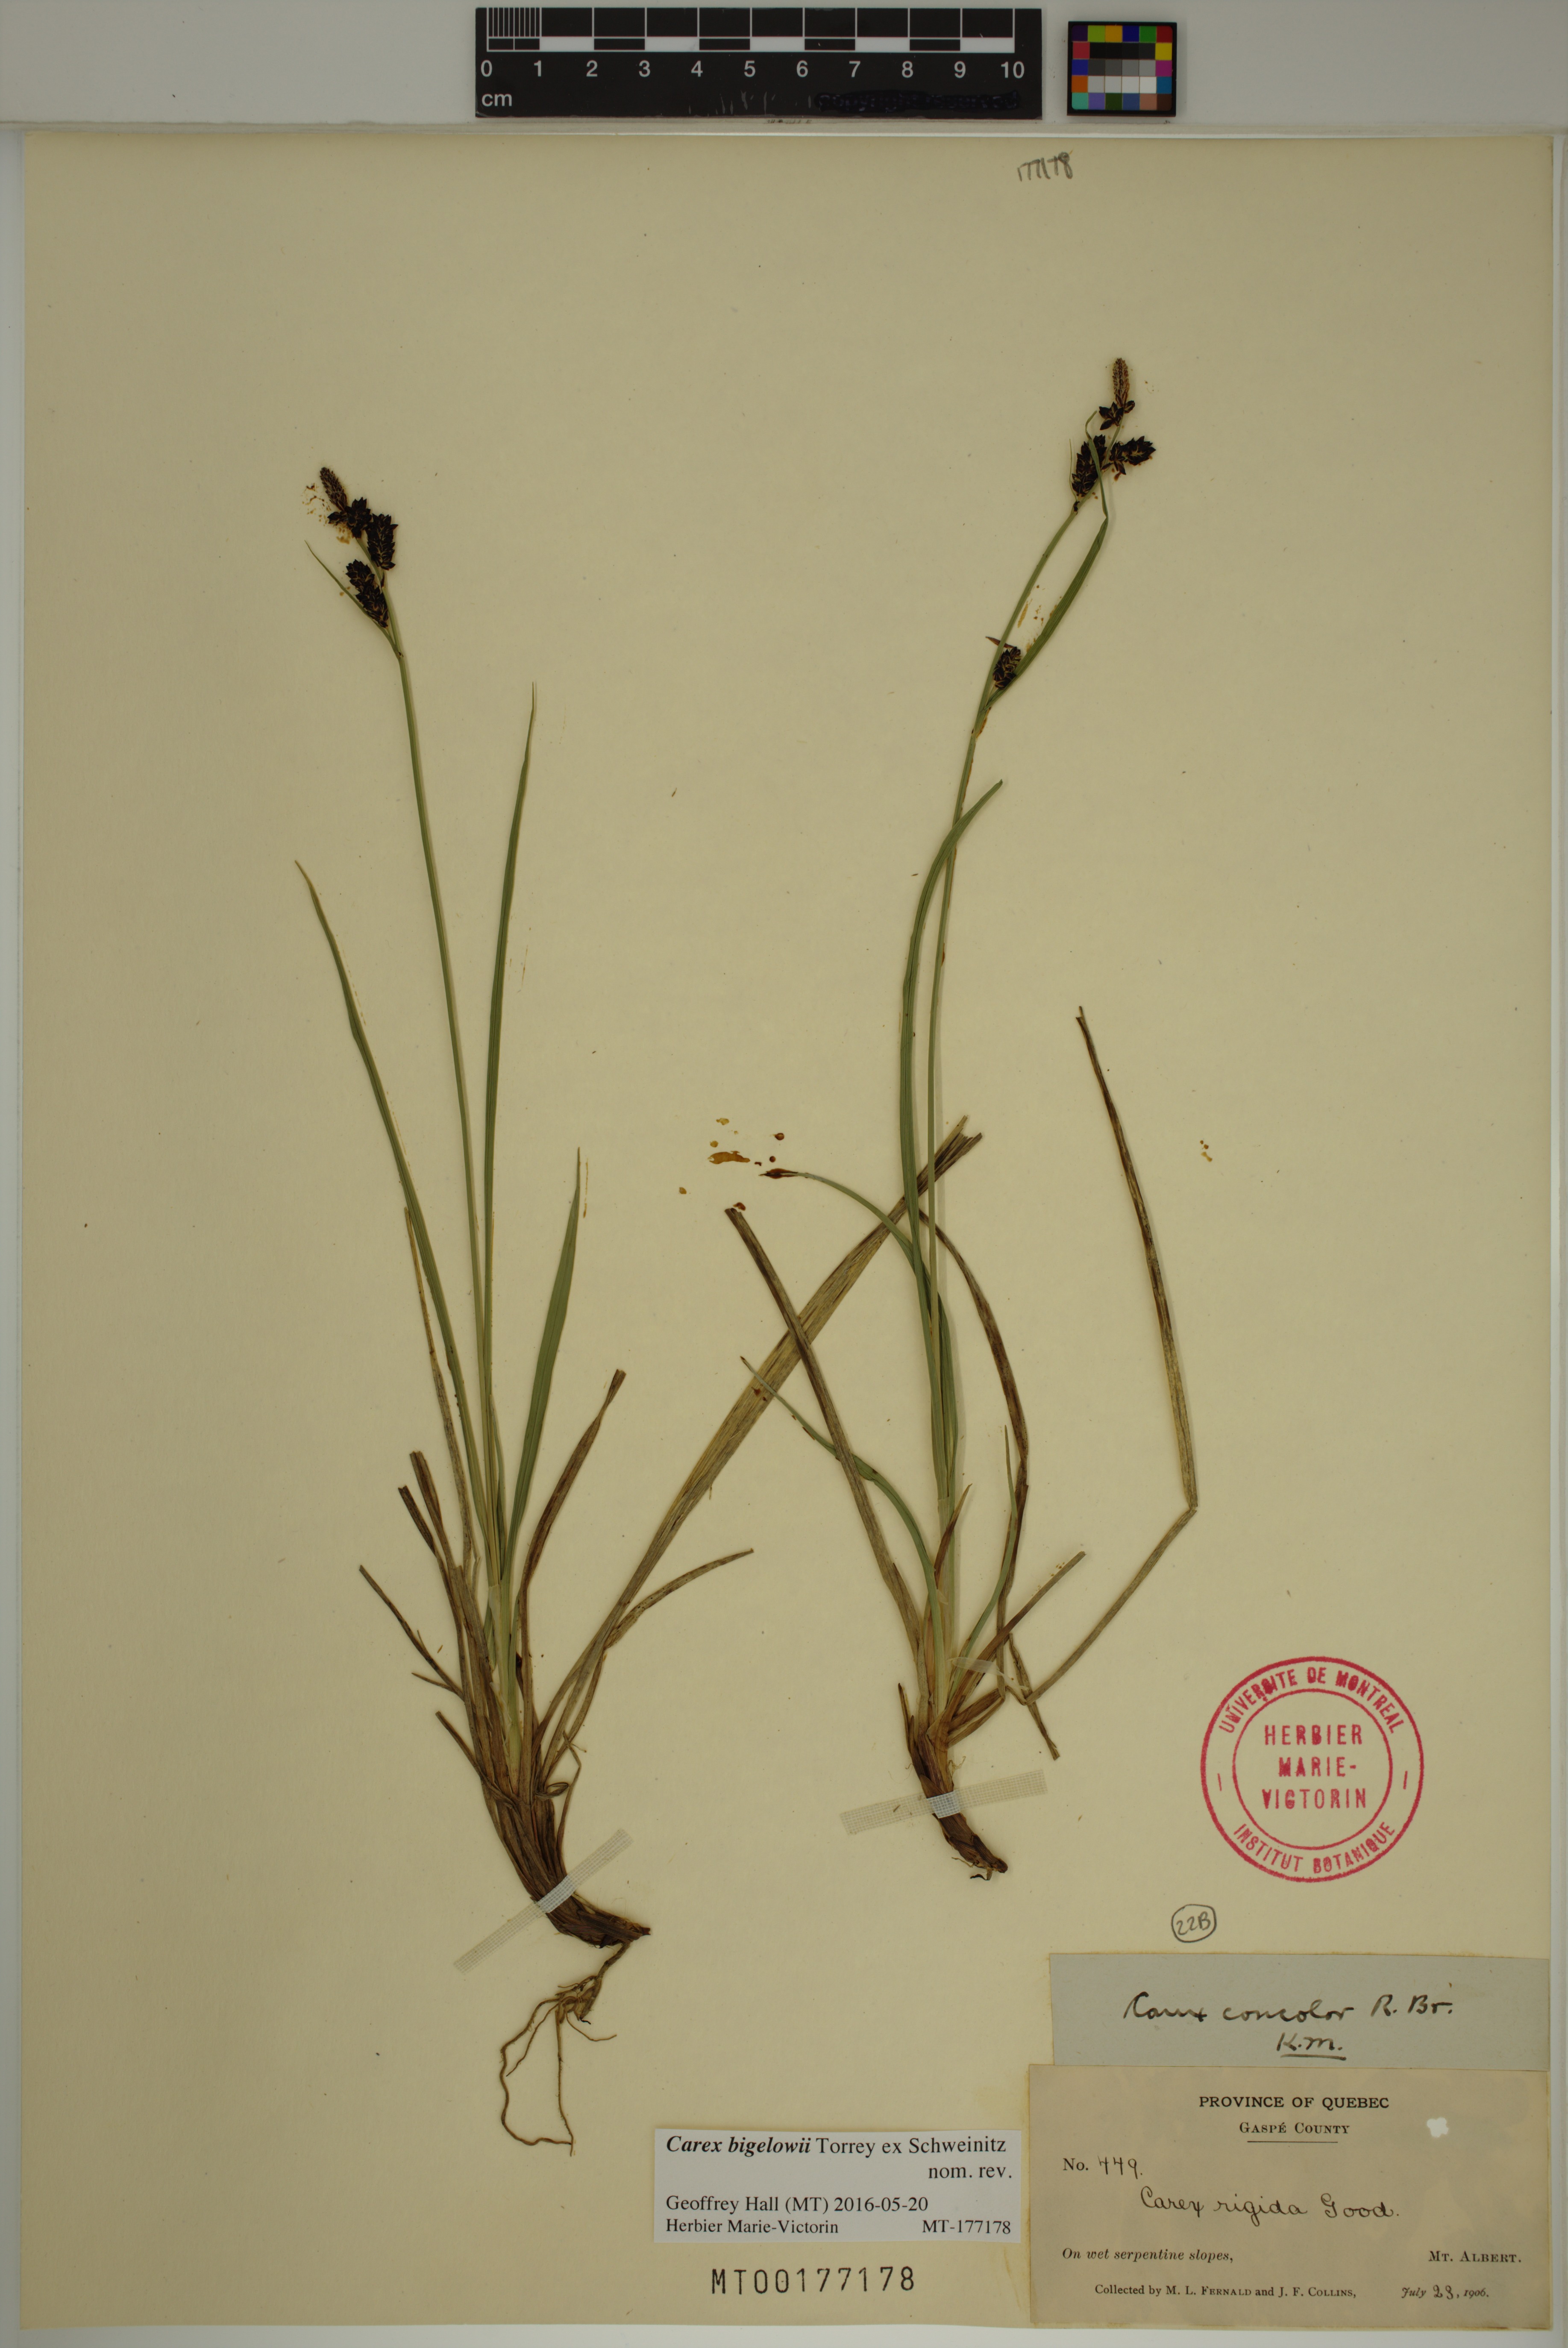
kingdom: Plantae
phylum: Tracheophyta
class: Liliopsida
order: Poales
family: Cyperaceae
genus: Carex
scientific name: Carex bigelowii
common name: Stiff sedge
